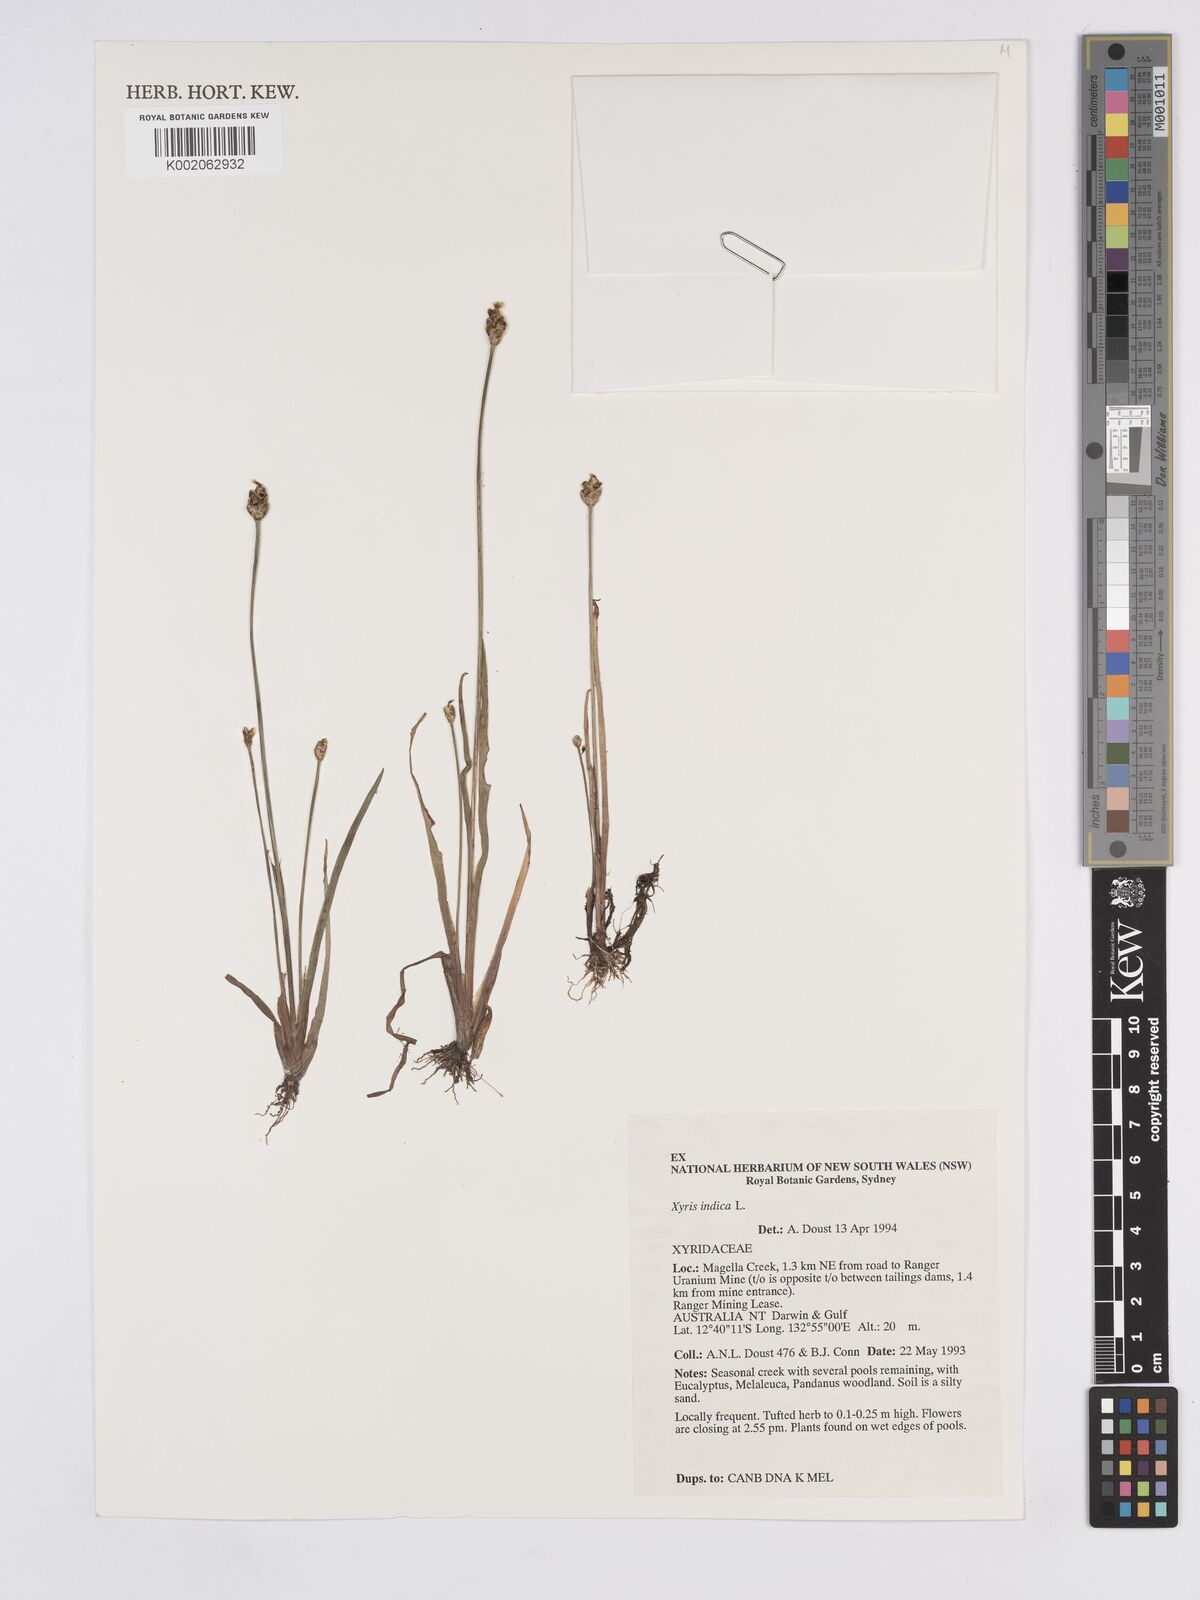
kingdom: Plantae
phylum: Tracheophyta
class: Liliopsida
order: Poales
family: Xyridaceae
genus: Xyris
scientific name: Xyris indica
